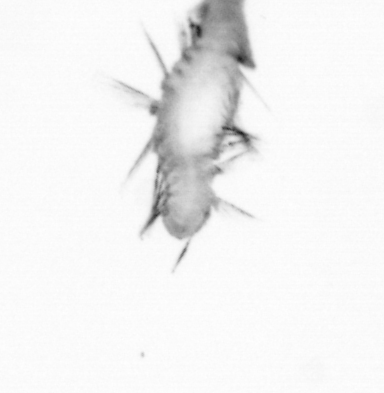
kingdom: Animalia
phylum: Annelida
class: Polychaeta
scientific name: Polychaeta
